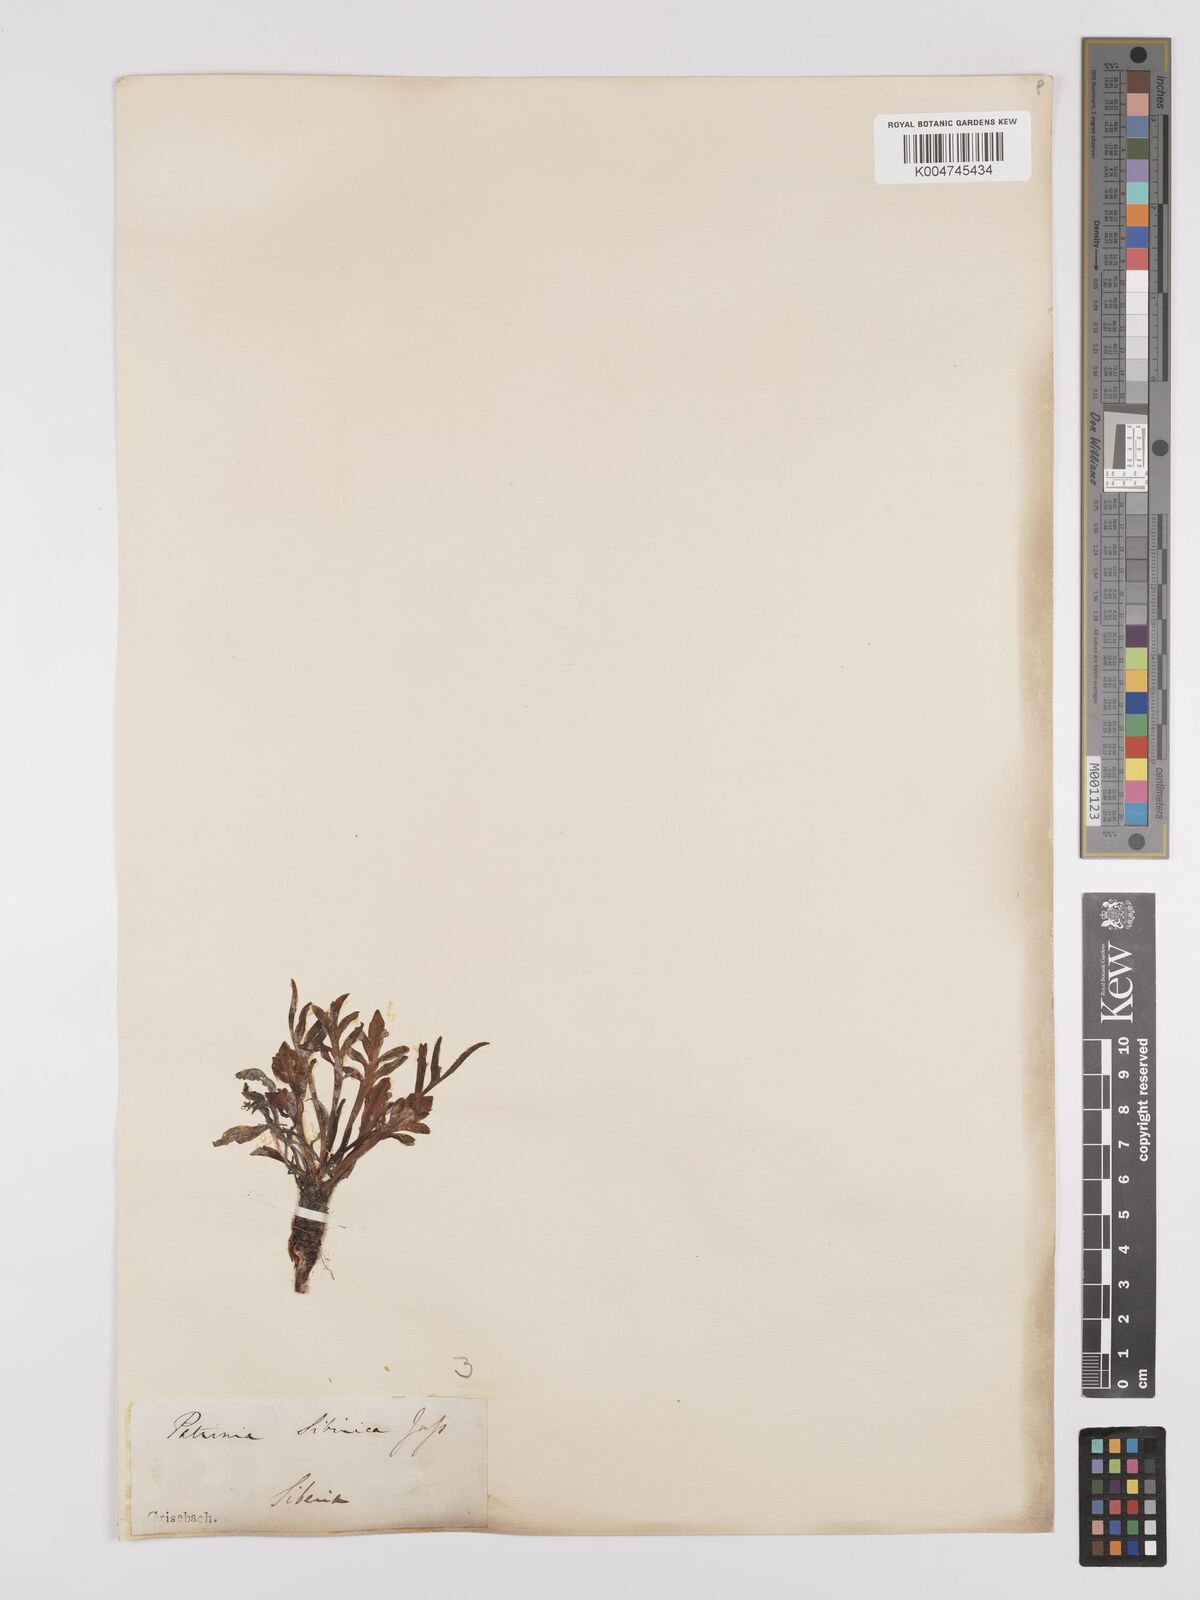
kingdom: Plantae
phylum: Tracheophyta
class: Magnoliopsida
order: Dipsacales
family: Caprifoliaceae
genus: Patrinia
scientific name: Patrinia sibirica
